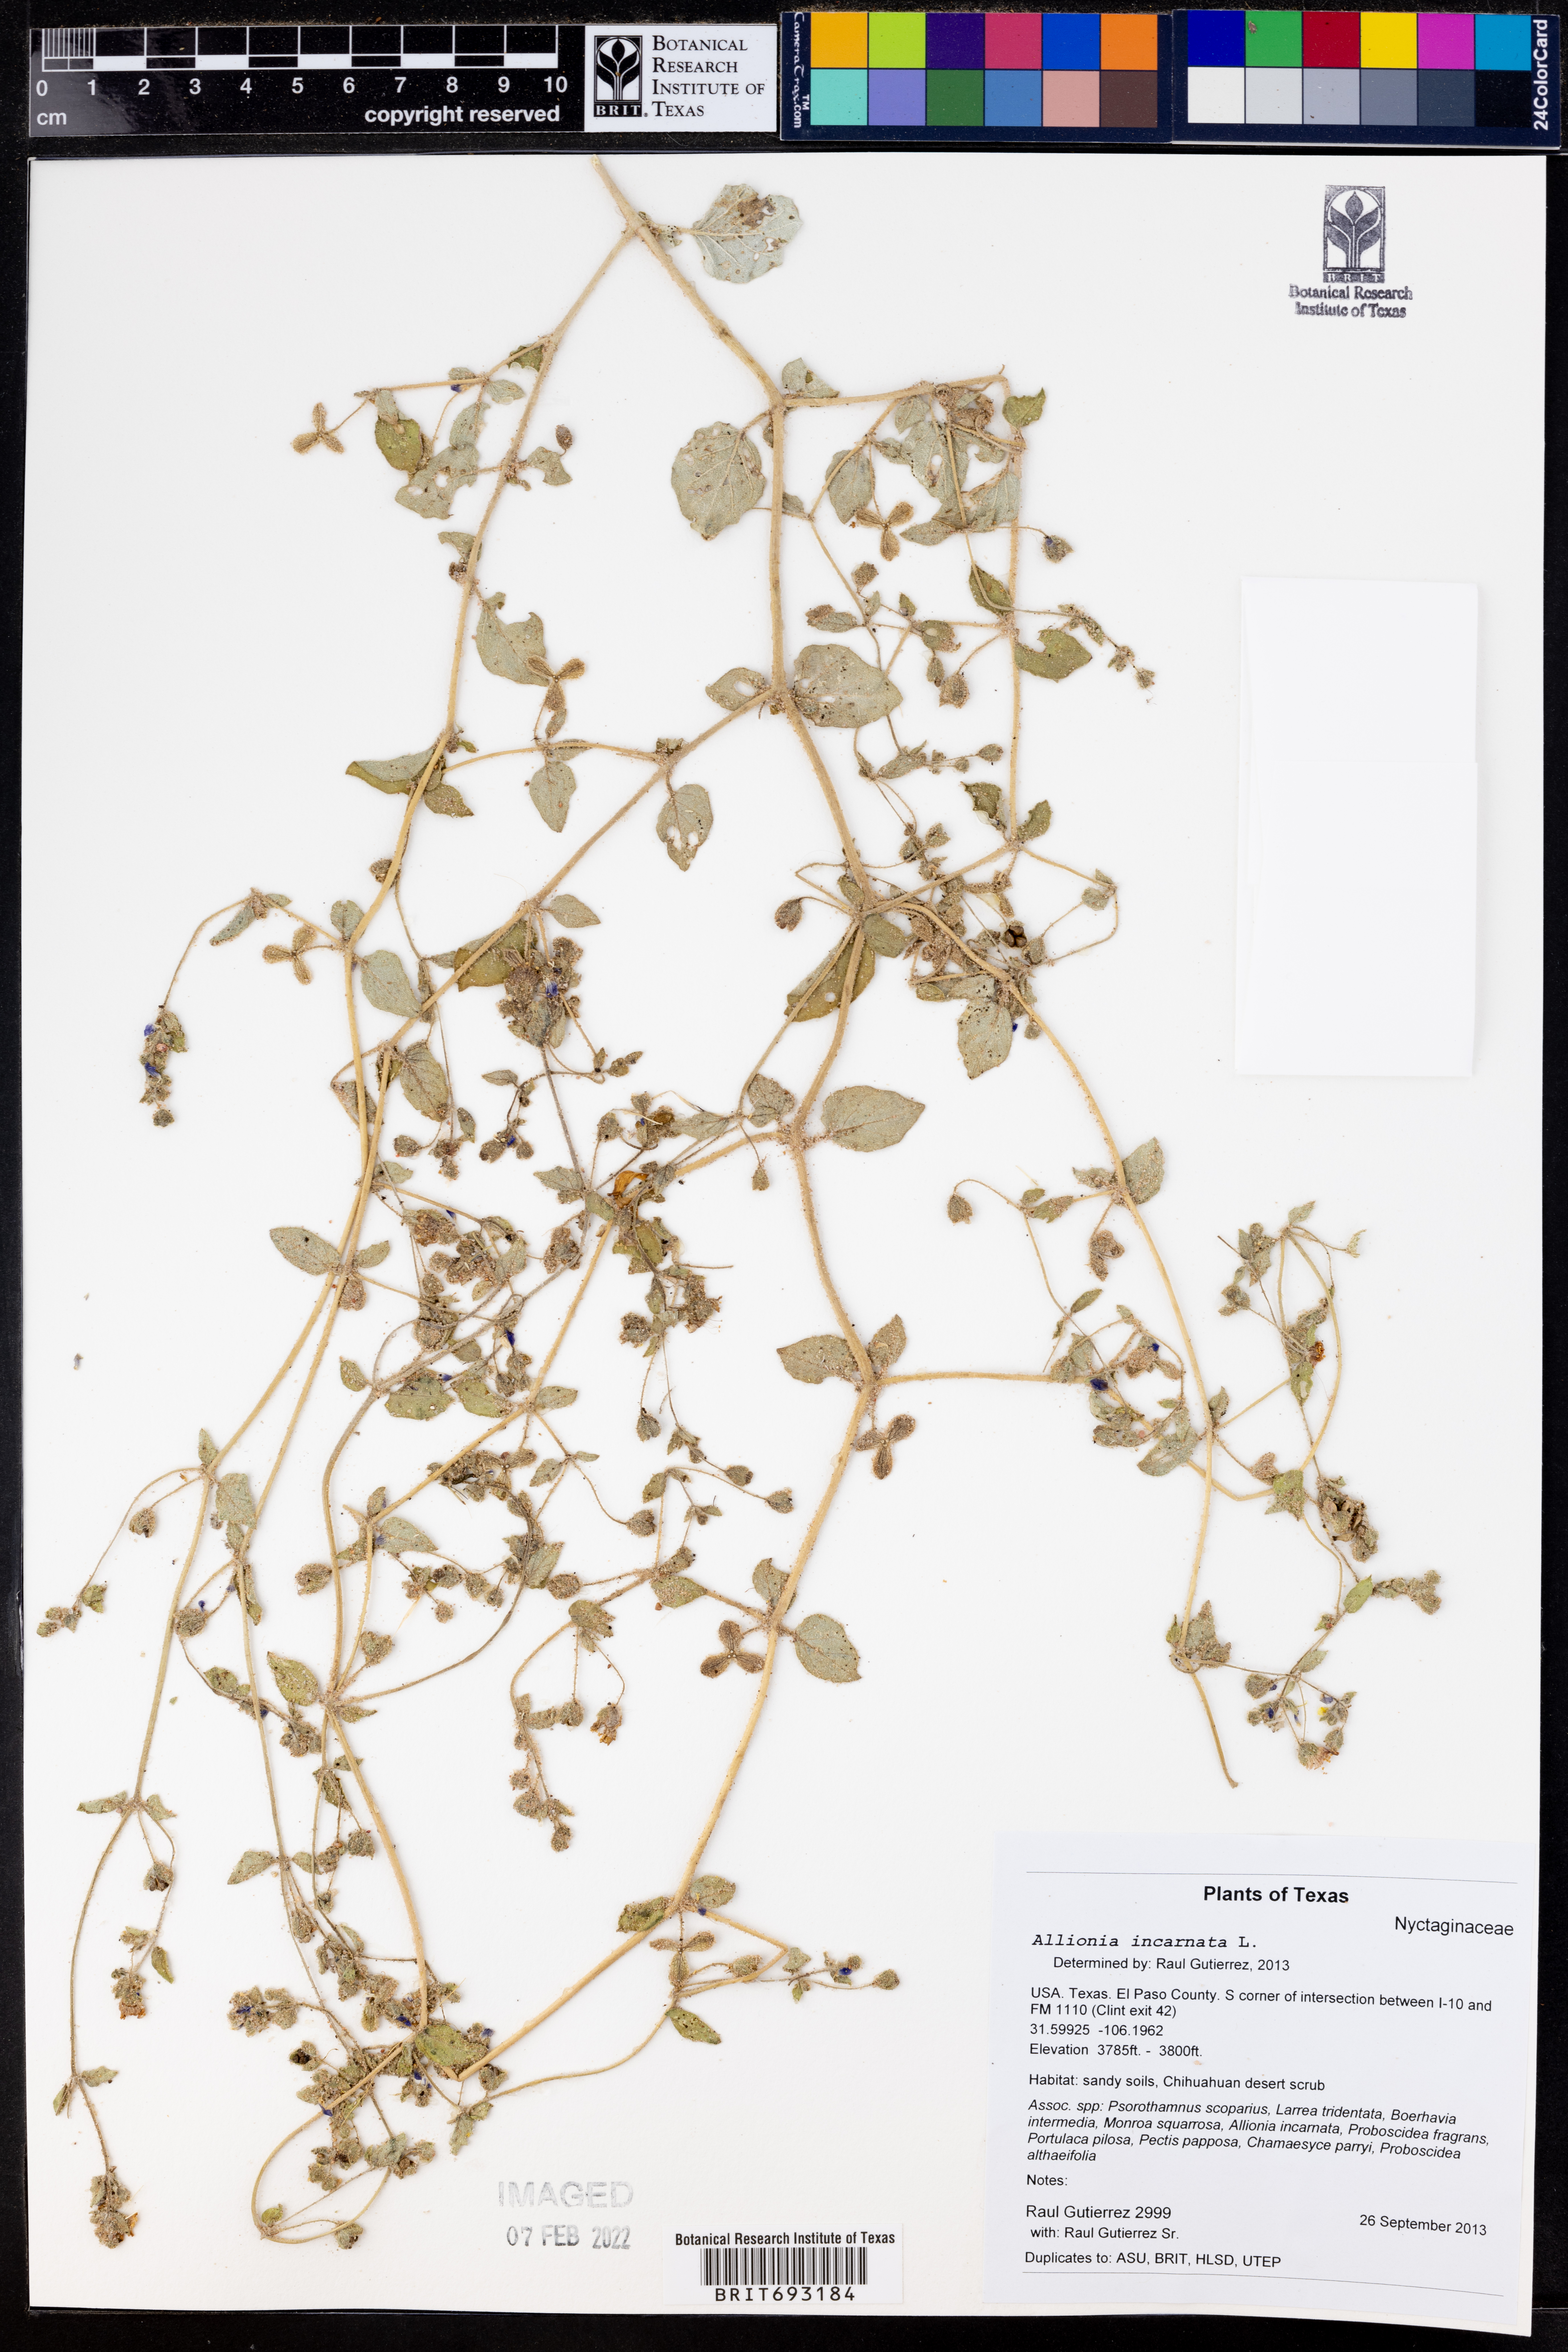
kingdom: Plantae
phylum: Tracheophyta
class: Magnoliopsida
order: Caryophyllales
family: Nyctaginaceae
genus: Allionia
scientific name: Allionia incarnata
